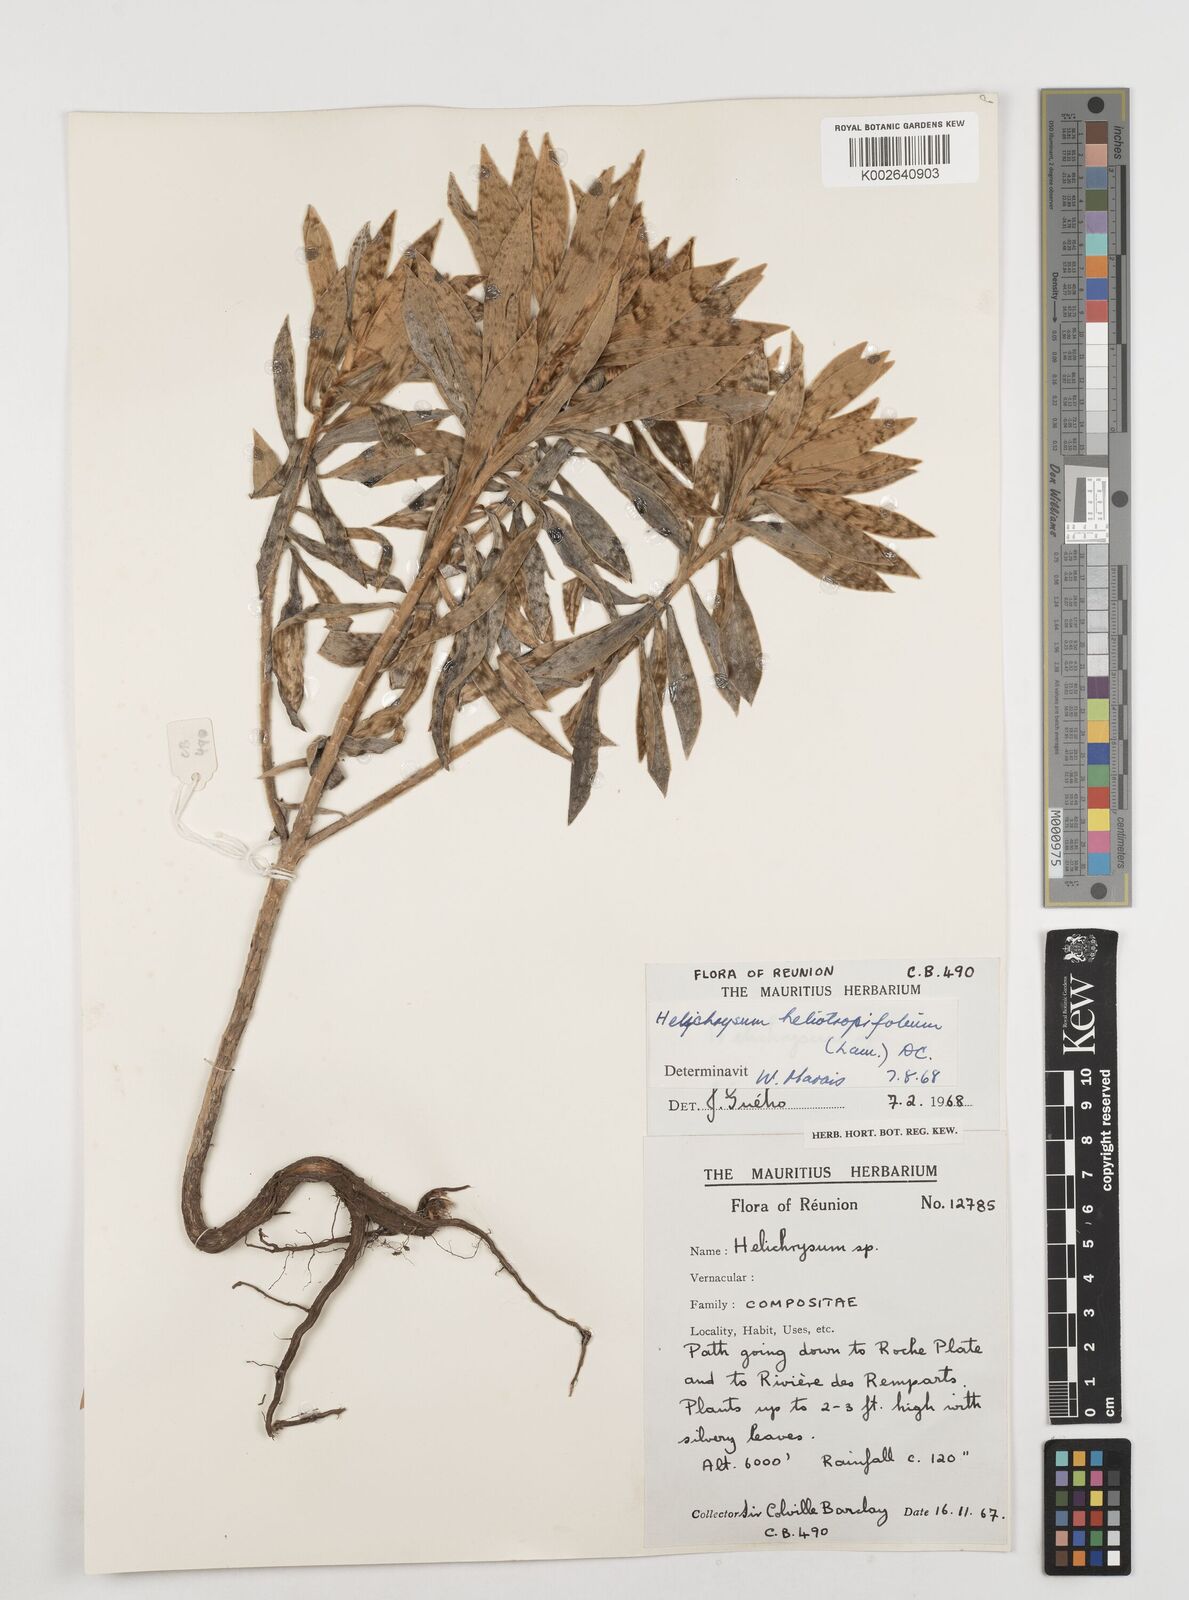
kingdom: Plantae
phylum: Tracheophyta
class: Magnoliopsida
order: Asterales
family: Asteraceae
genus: Helichrysum
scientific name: Helichrysum heliotropifolium
